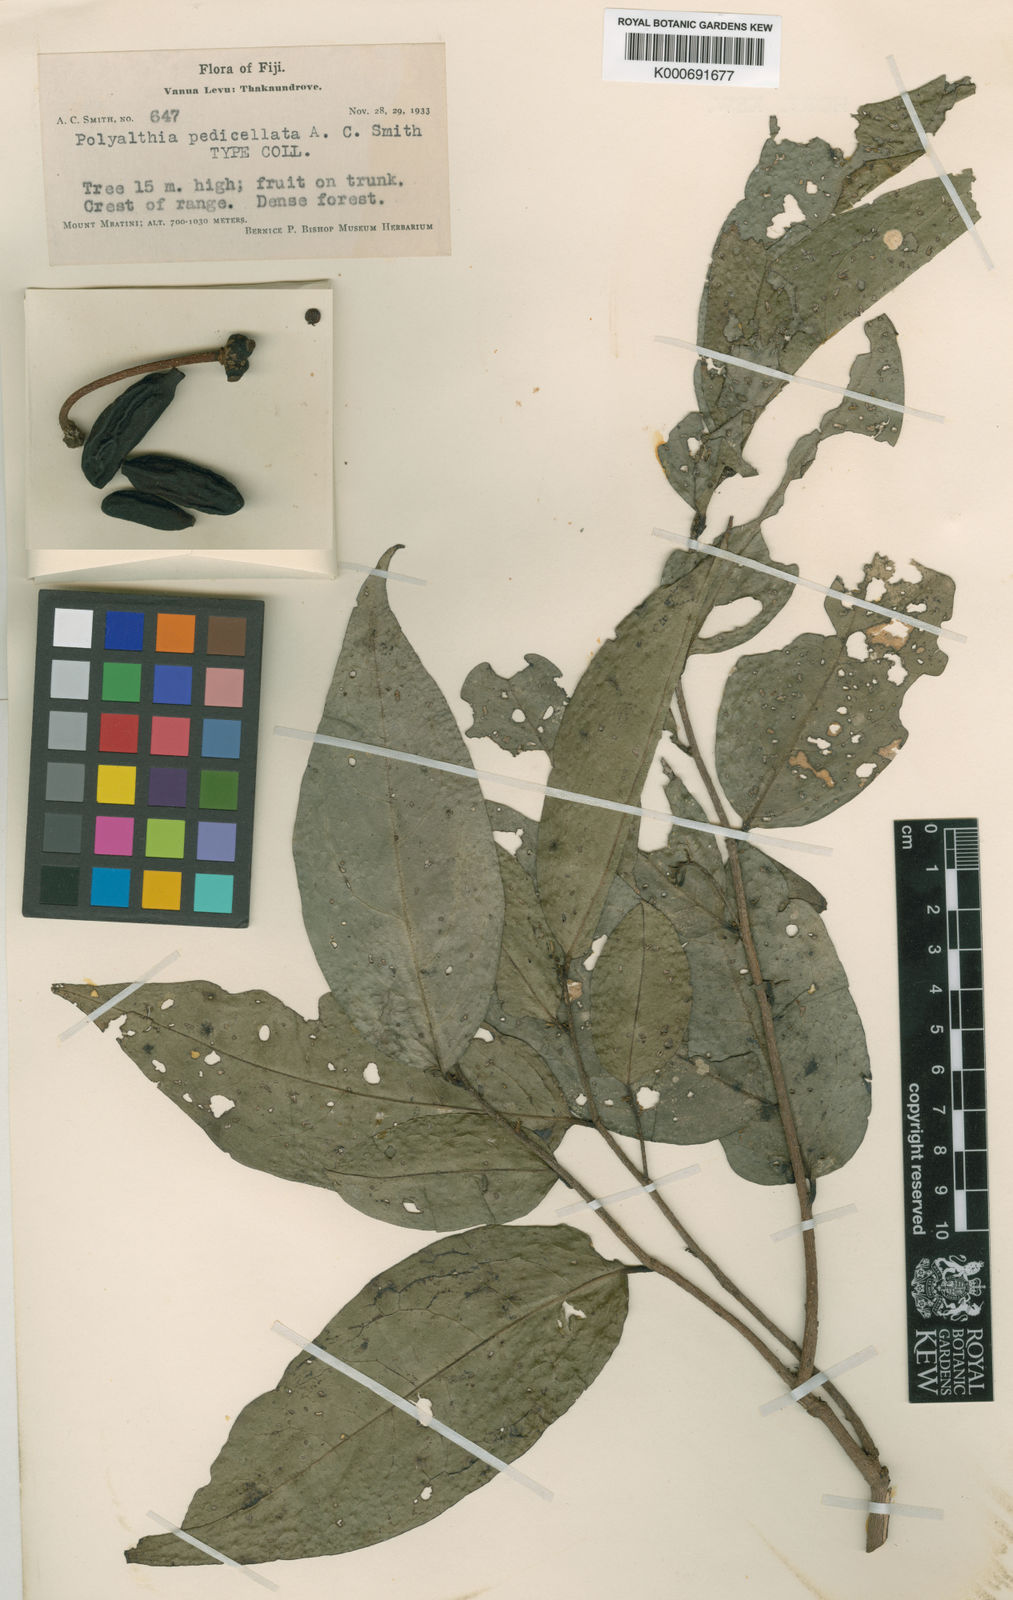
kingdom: Plantae
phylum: Tracheophyta
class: Magnoliopsida
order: Magnoliales
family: Annonaceae
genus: Hubera
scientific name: Hubera vitiensis
